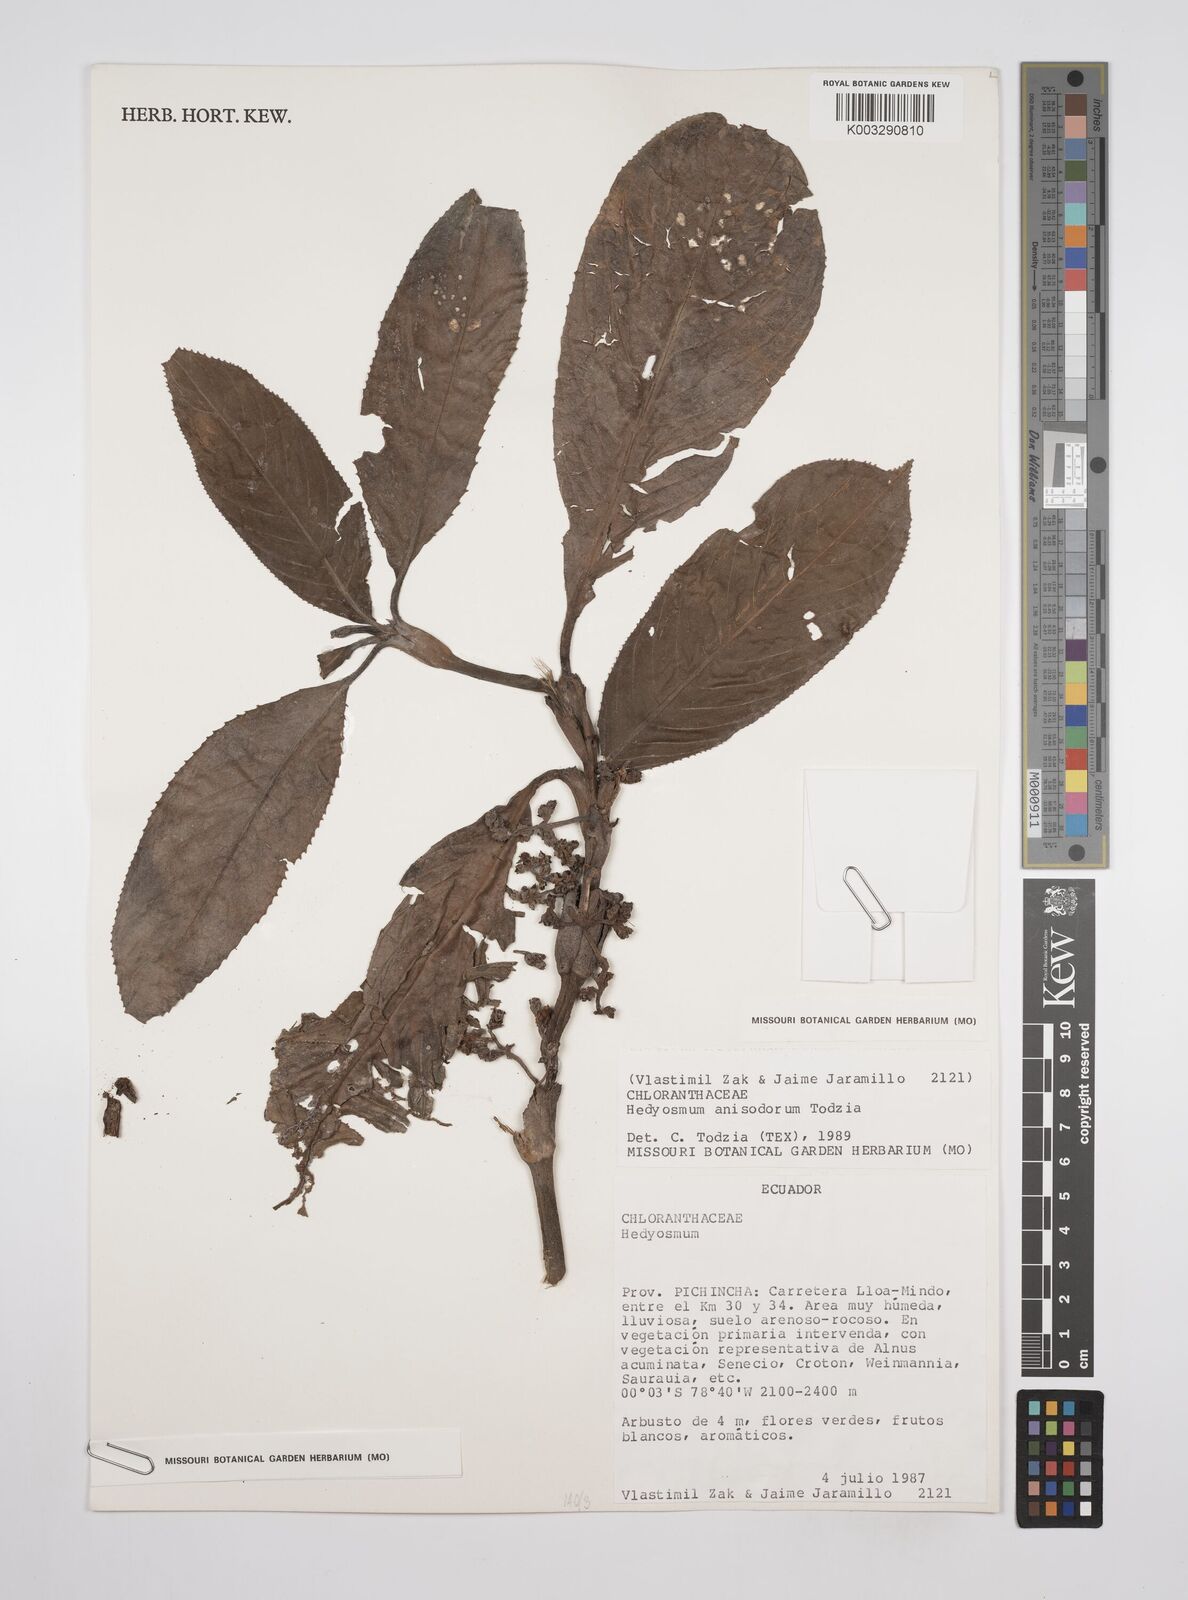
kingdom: Plantae
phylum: Tracheophyta
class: Magnoliopsida
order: Chloranthales
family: Chloranthaceae
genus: Hedyosmum
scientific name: Hedyosmum anisodorum
